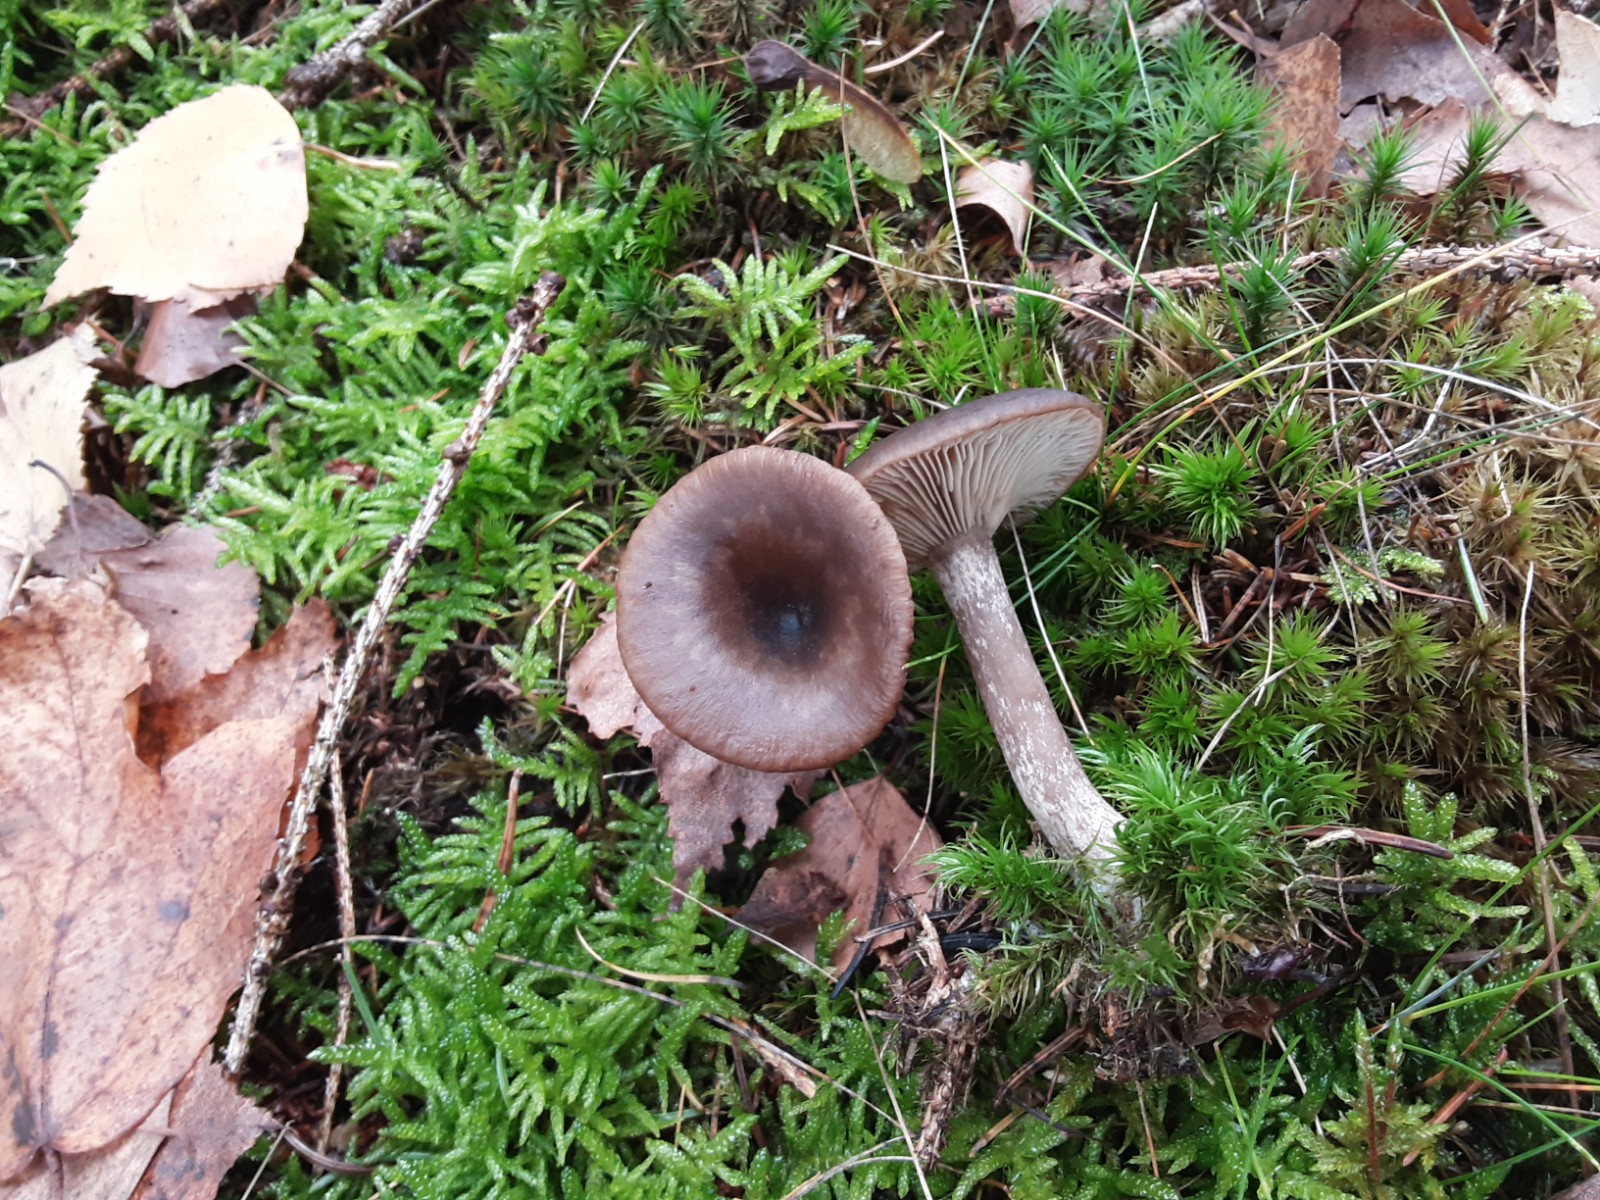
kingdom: Fungi
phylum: Basidiomycota
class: Agaricomycetes
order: Agaricales
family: Pseudoclitocybaceae
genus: Pseudoclitocybe
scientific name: Pseudoclitocybe cyathiformis
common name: almindelig bægertragthat
